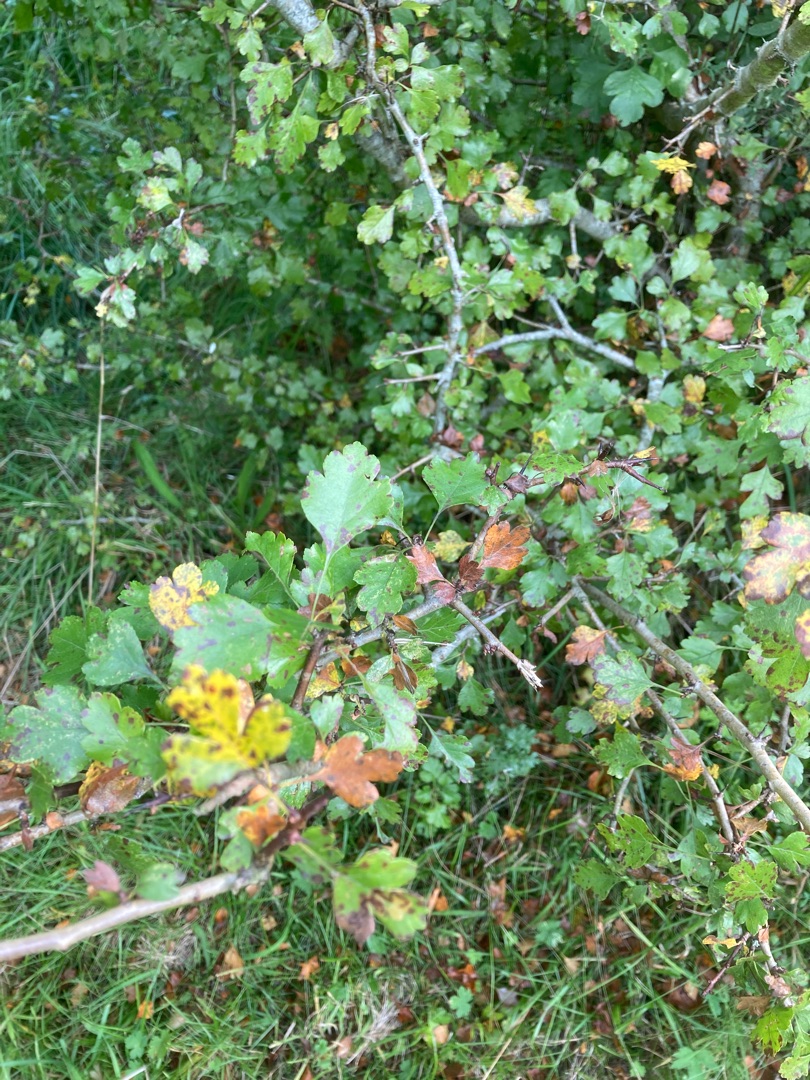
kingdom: Plantae
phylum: Tracheophyta
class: Magnoliopsida
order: Rosales
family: Rosaceae
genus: Crataegus
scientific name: Crataegus laevigata
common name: Almindelig hvidtjørn
